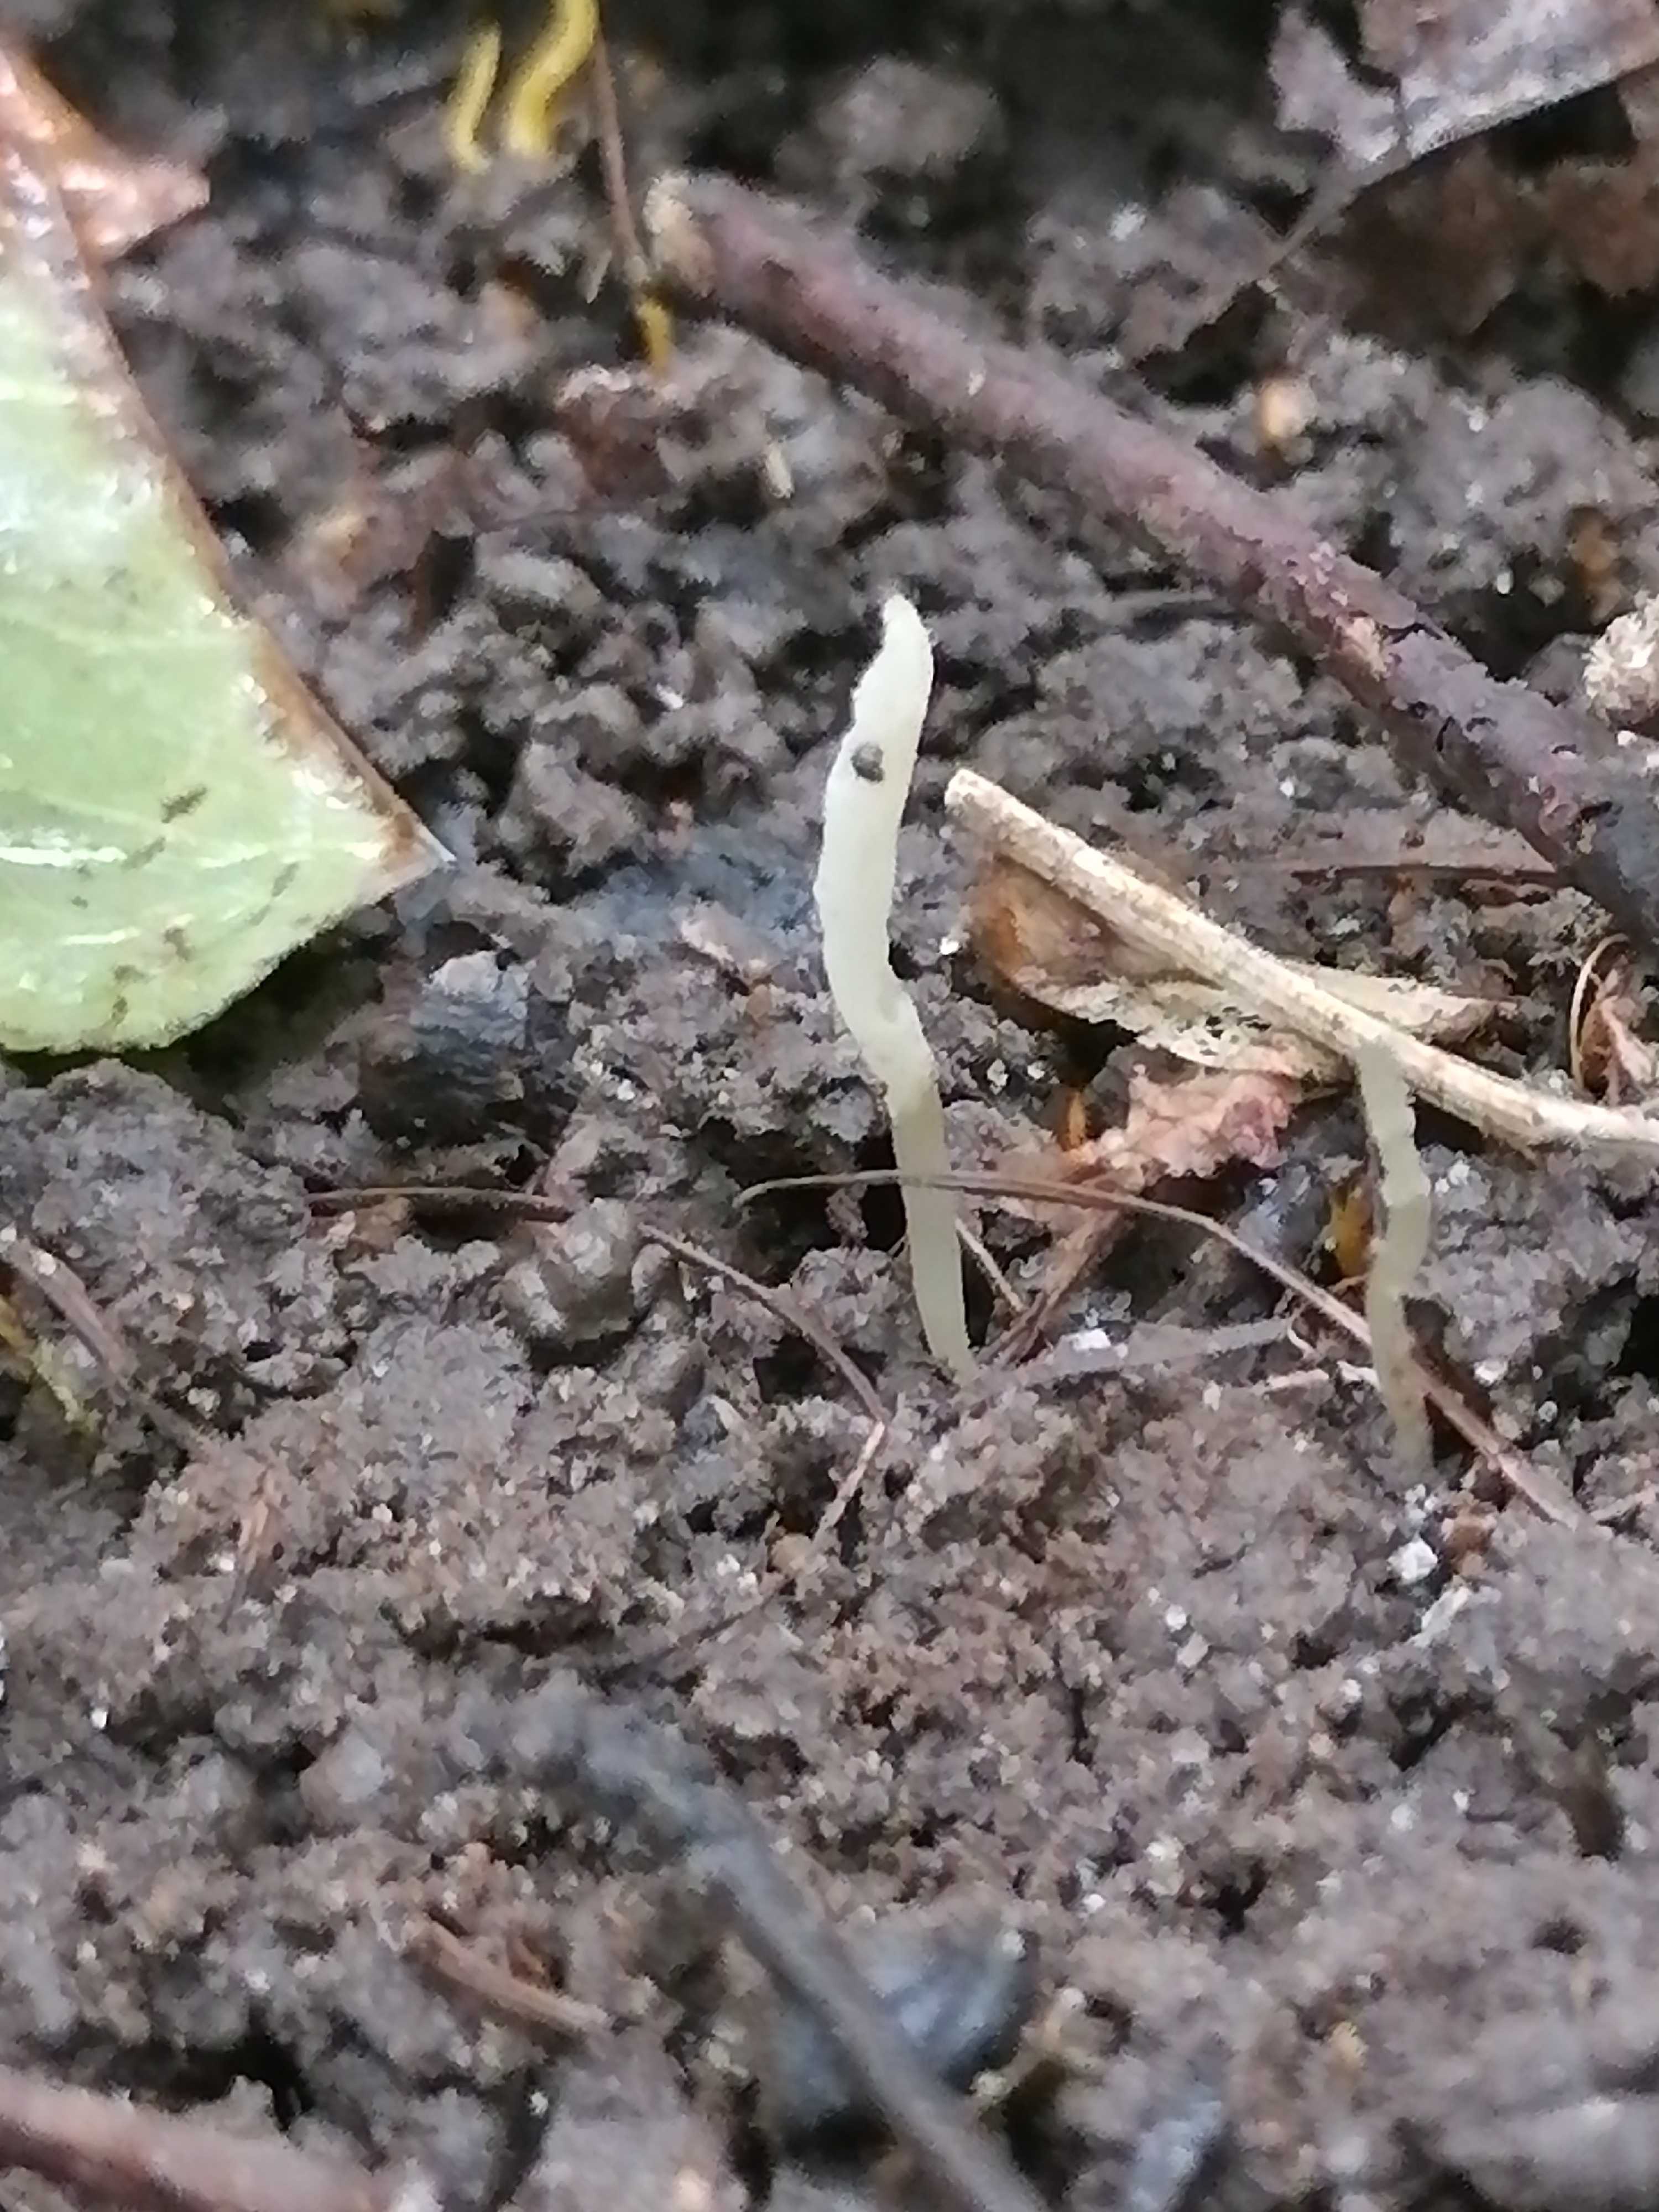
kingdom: Fungi
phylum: Basidiomycota
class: Agaricomycetes
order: Agaricales
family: Clavariaceae
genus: Clavaria
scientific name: Clavaria falcata
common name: hvid køllesvamp
